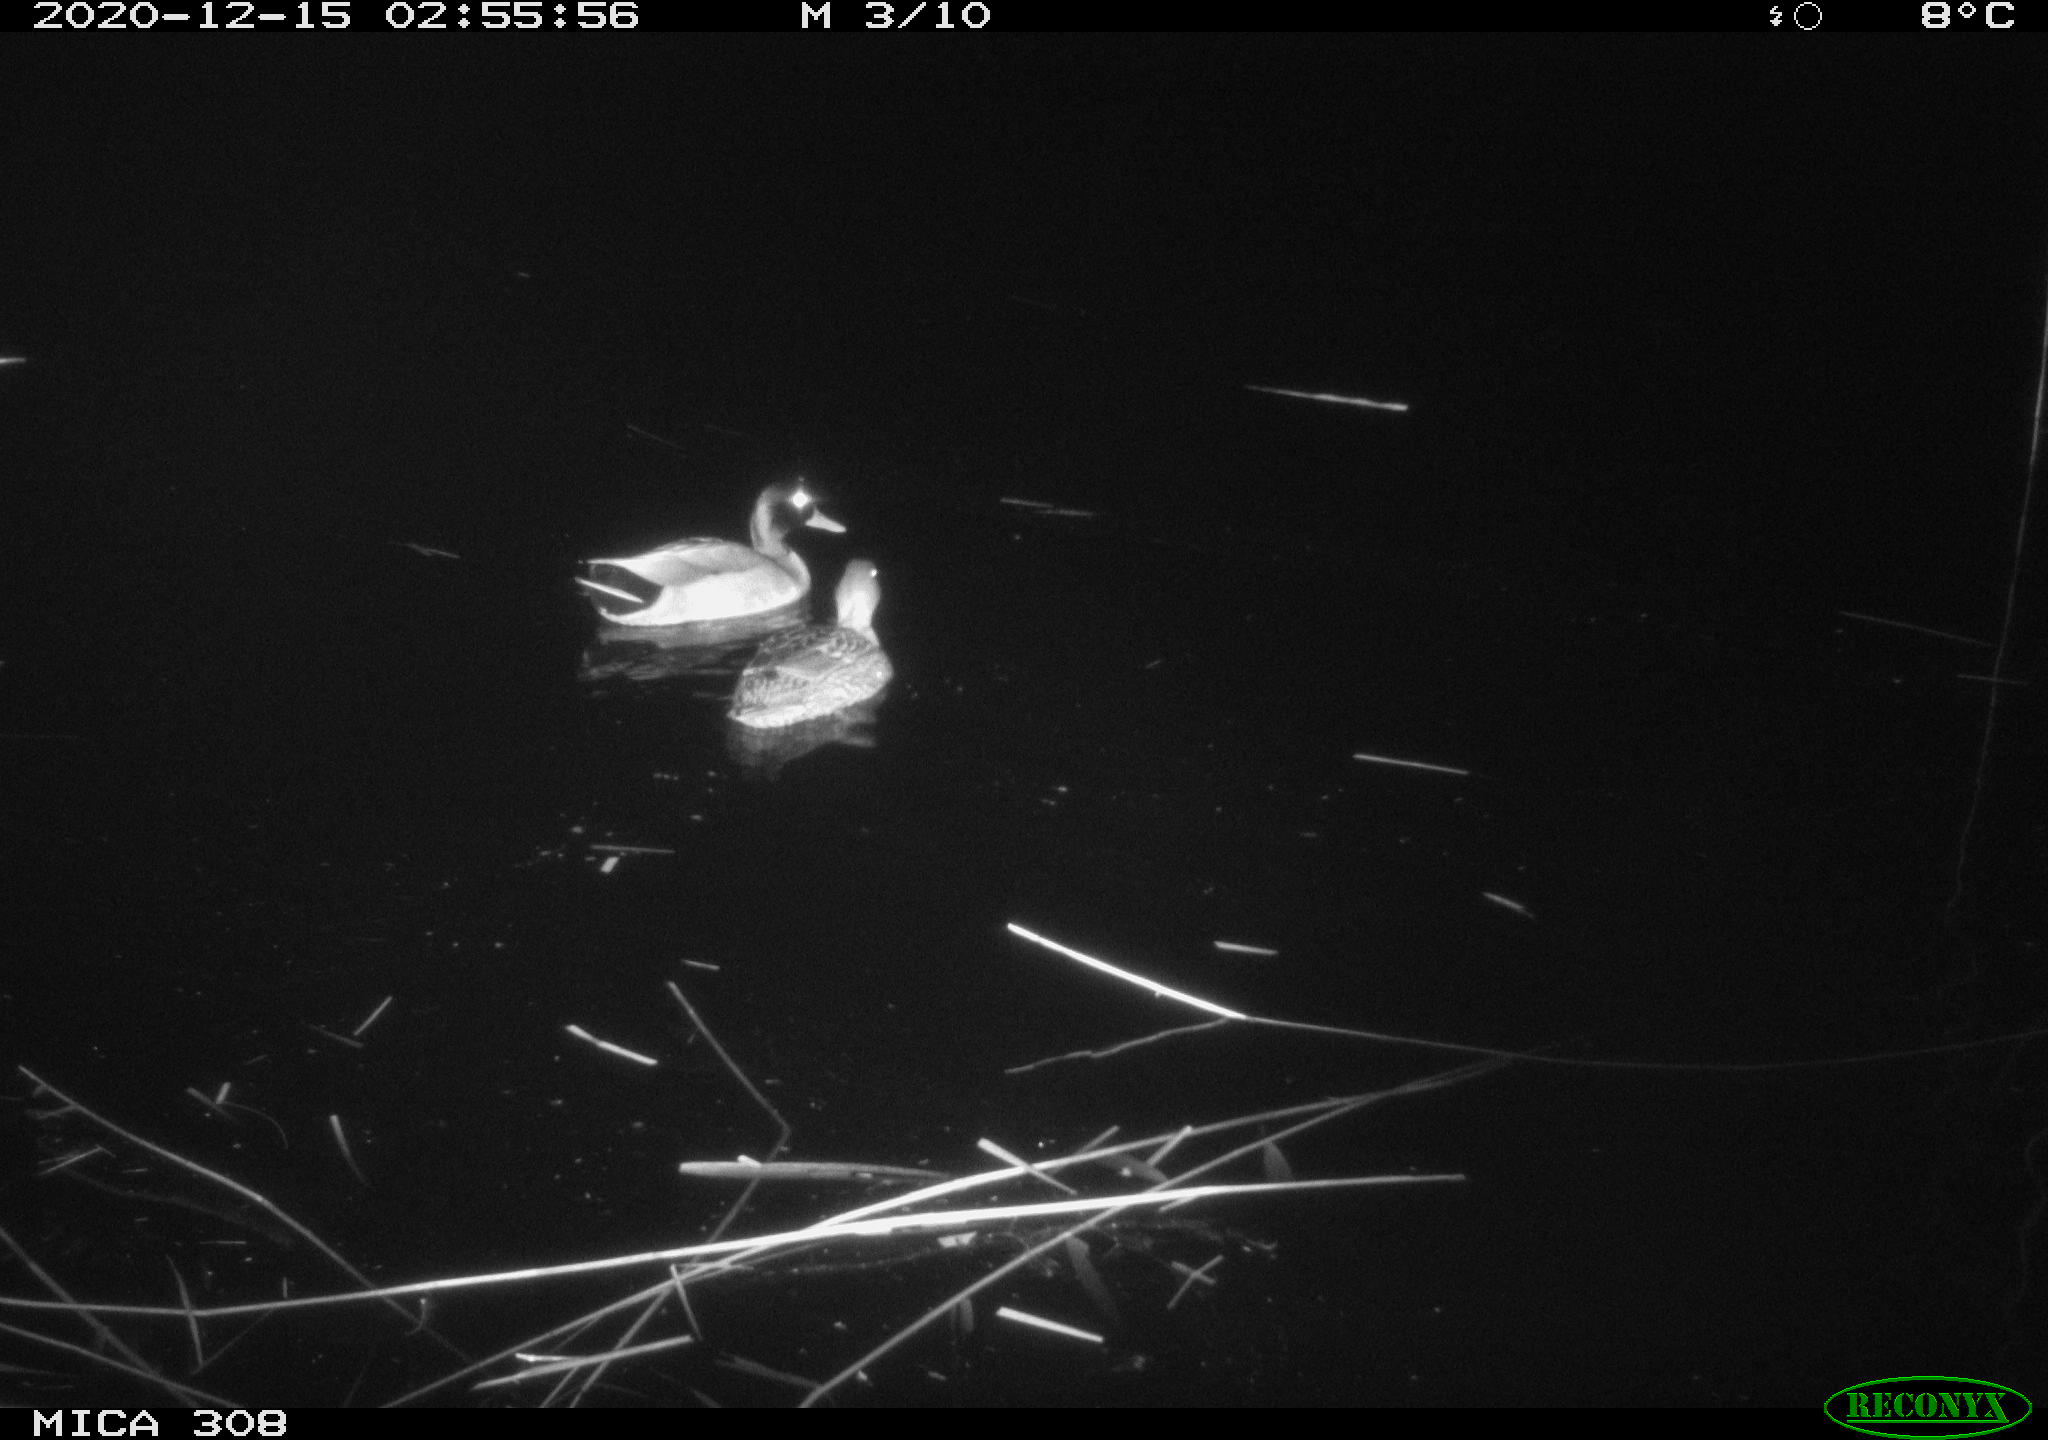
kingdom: Animalia
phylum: Chordata
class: Aves
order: Anseriformes
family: Anatidae
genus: Anas
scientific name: Anas platyrhynchos
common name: Mallard
